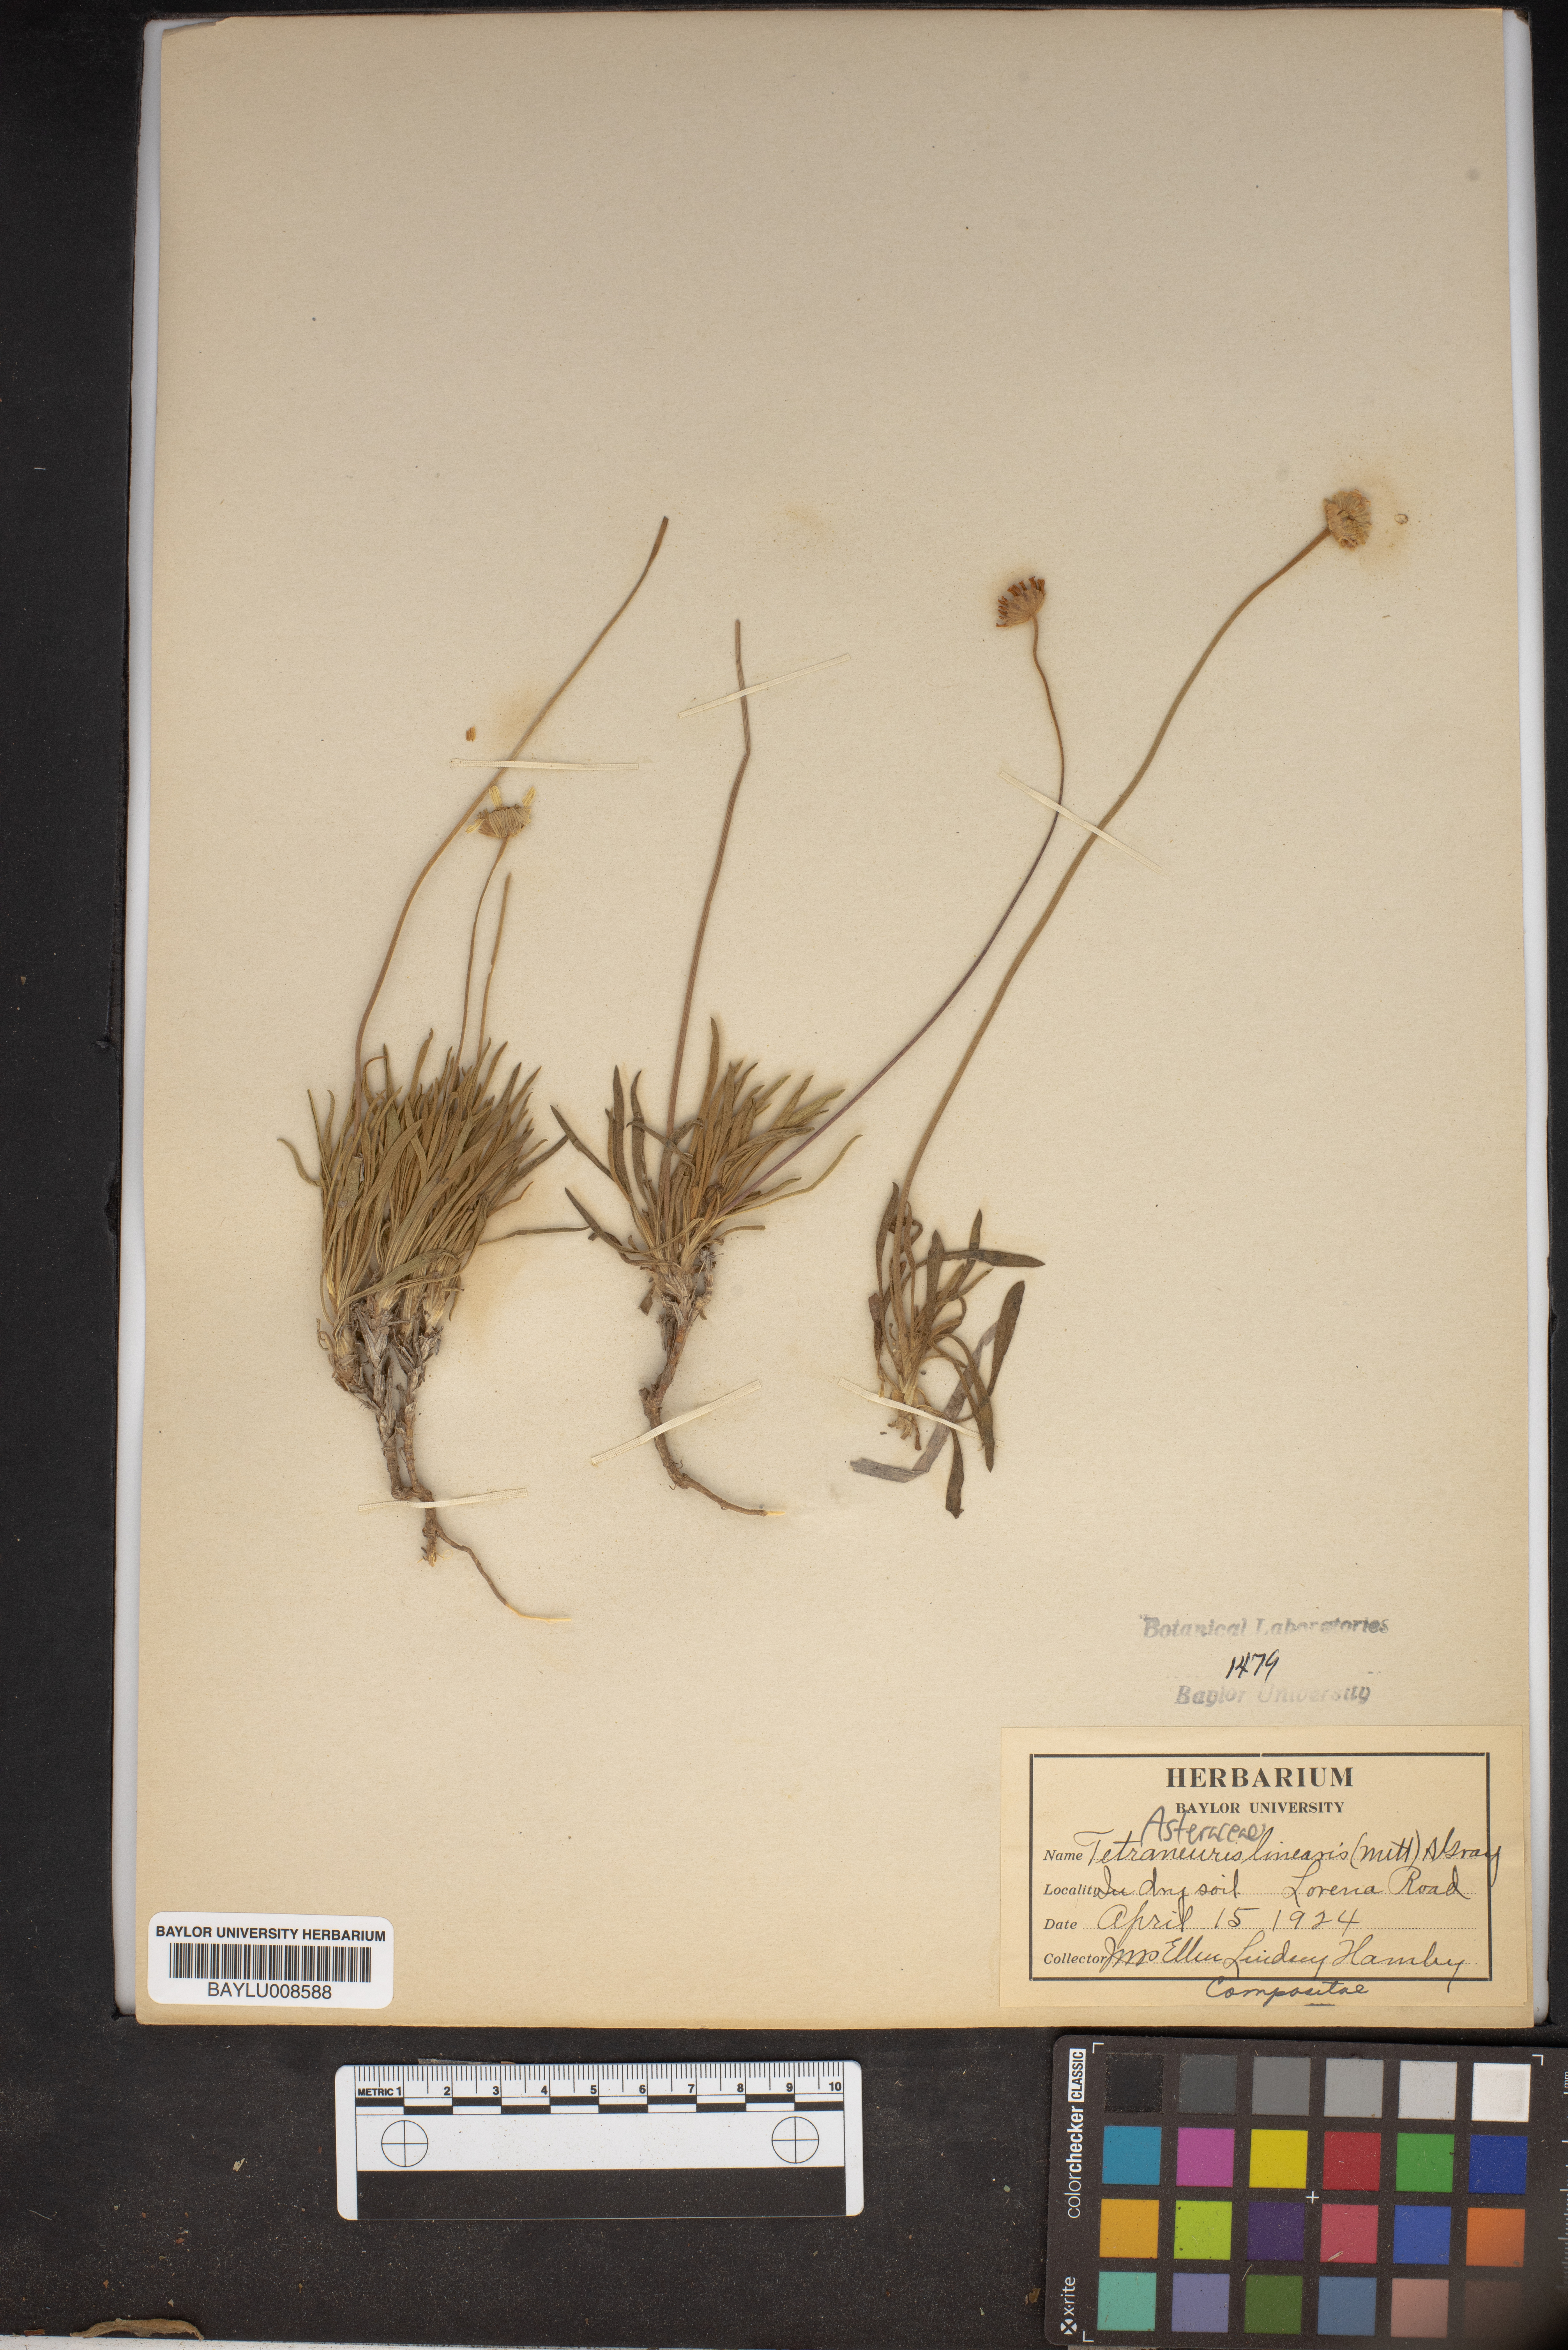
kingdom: Plantae
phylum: Tracheophyta
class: Magnoliopsida
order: Asterales
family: Asteraceae
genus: Tetraneuris
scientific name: Tetraneuris scaposa
